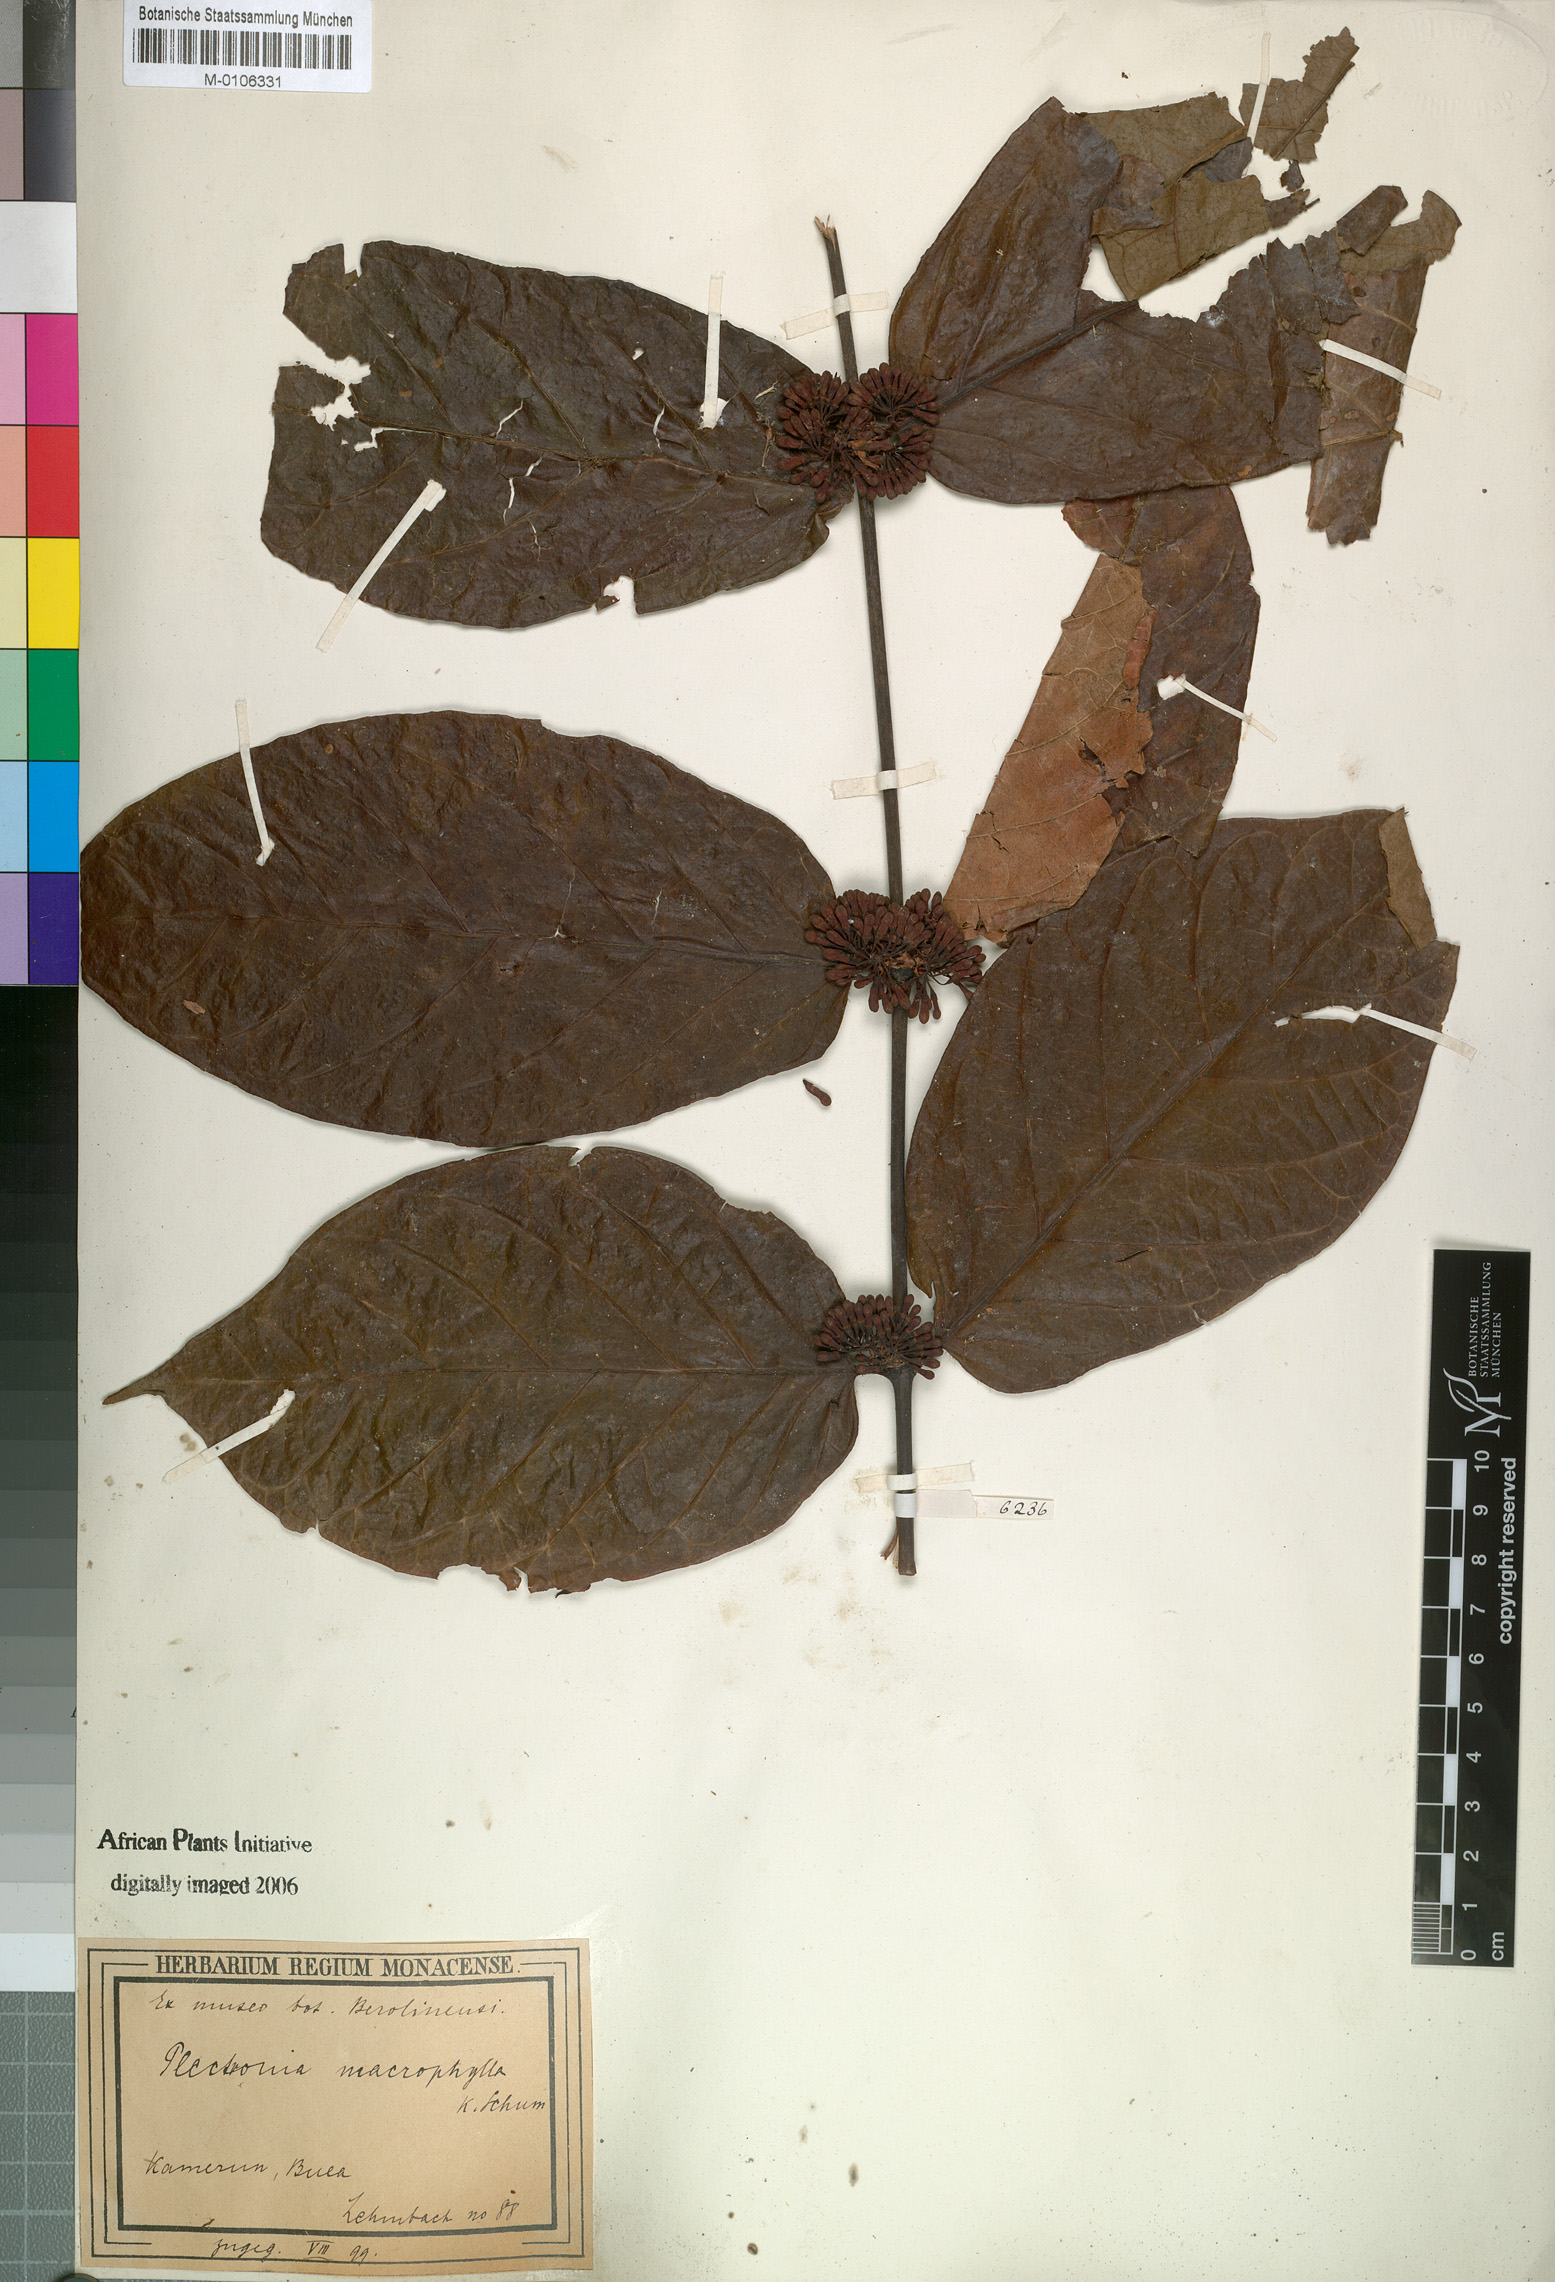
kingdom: Plantae
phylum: Tracheophyta
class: Magnoliopsida
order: Gentianales
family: Rubiaceae
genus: Keetia
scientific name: Keetia hispida
